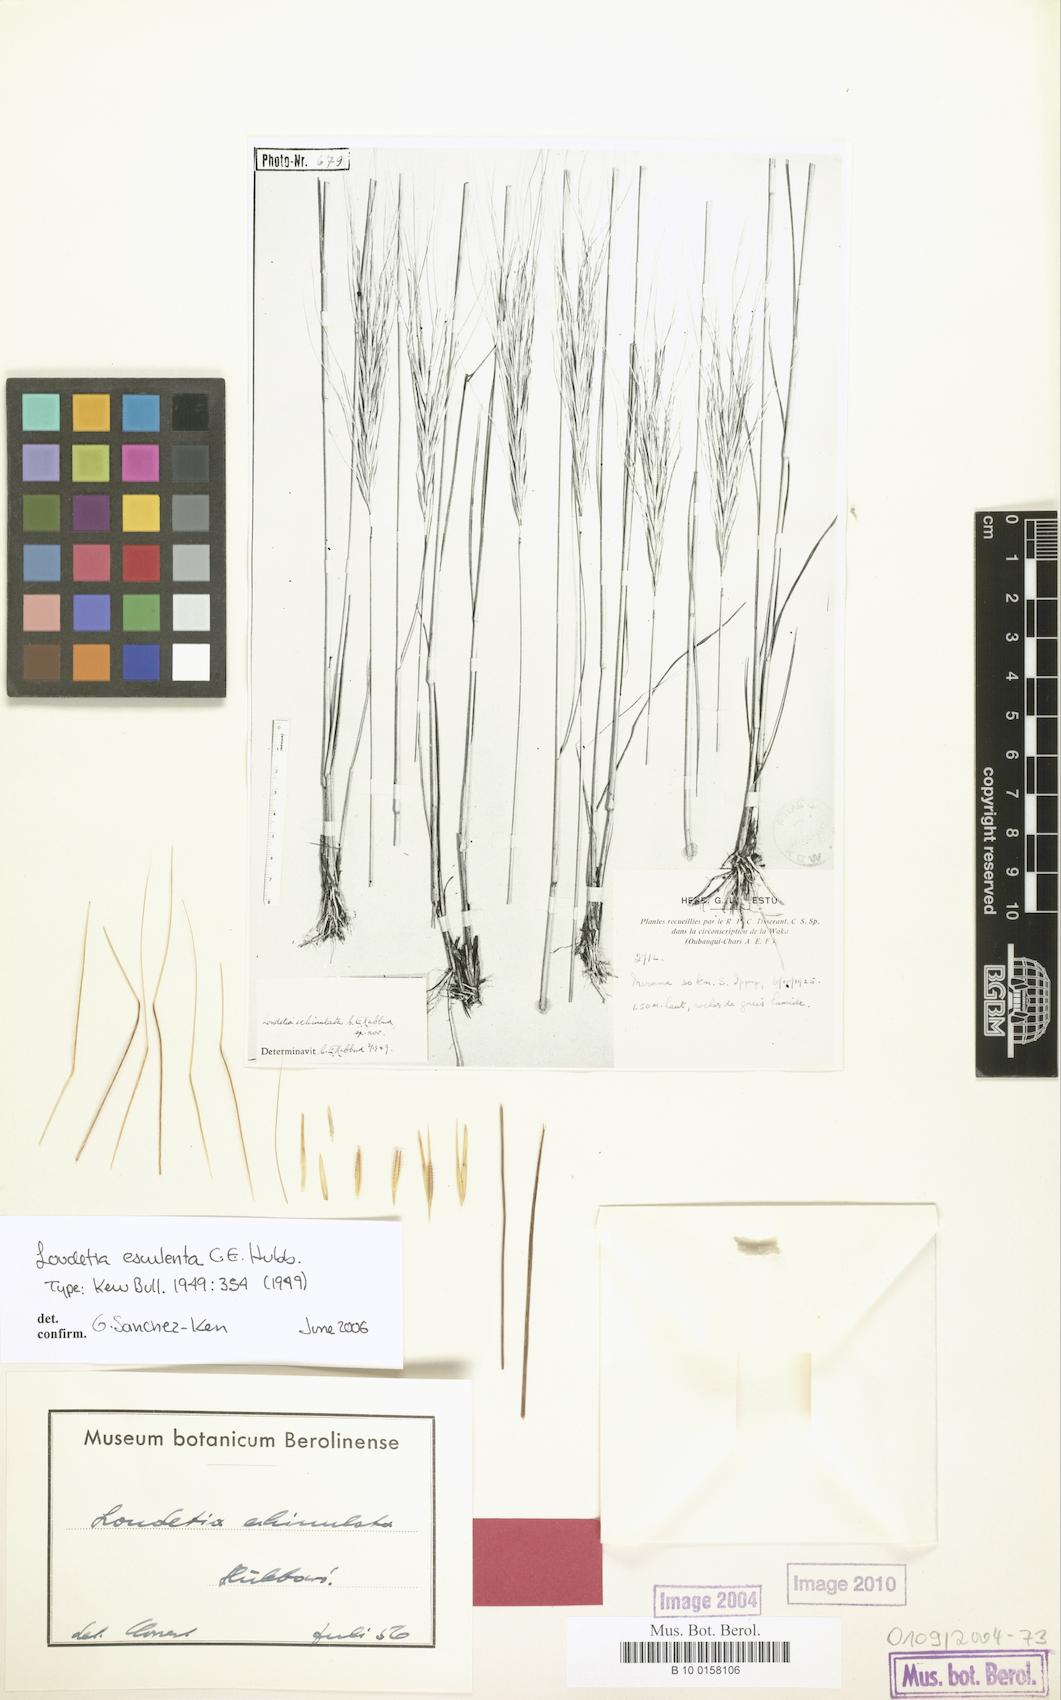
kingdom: Plantae
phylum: Tracheophyta
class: Liliopsida
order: Poales
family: Poaceae
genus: Loudetia
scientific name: Loudetia esculenta
